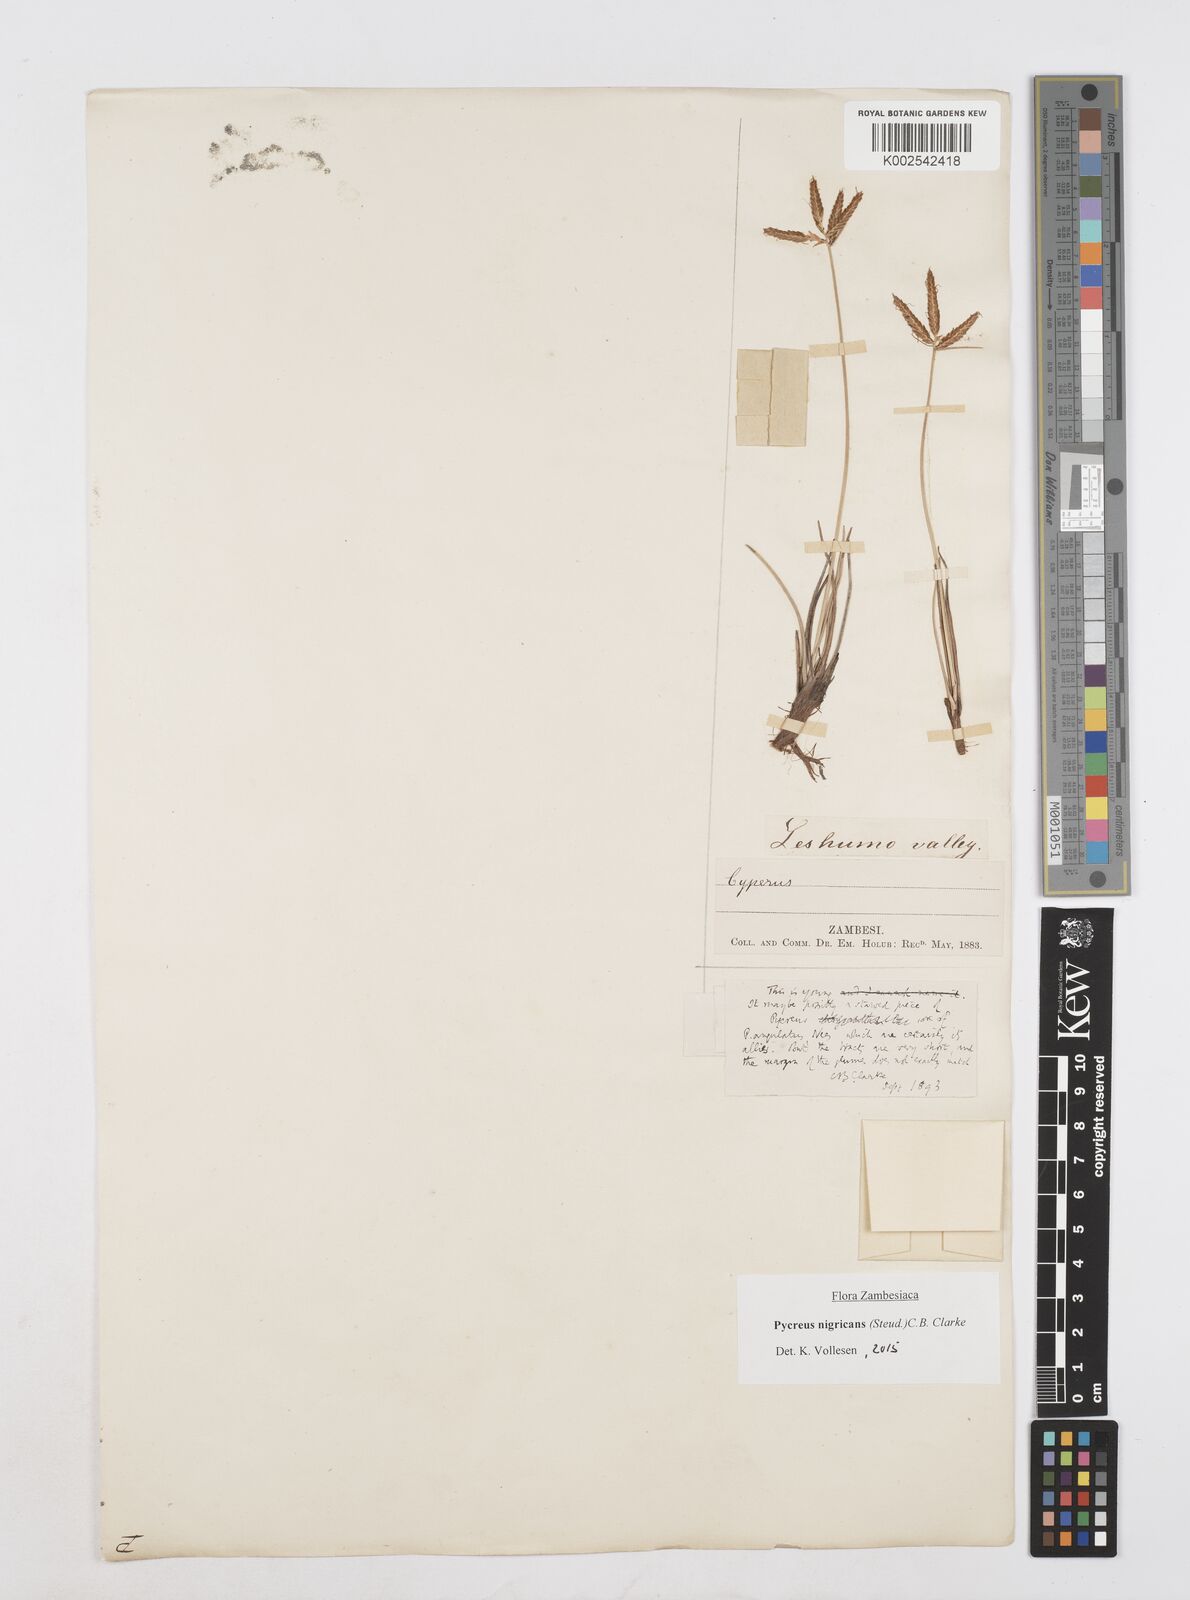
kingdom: Plantae
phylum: Tracheophyta
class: Liliopsida
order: Poales
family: Cyperaceae
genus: Cyperus
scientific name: Cyperus nigricans
